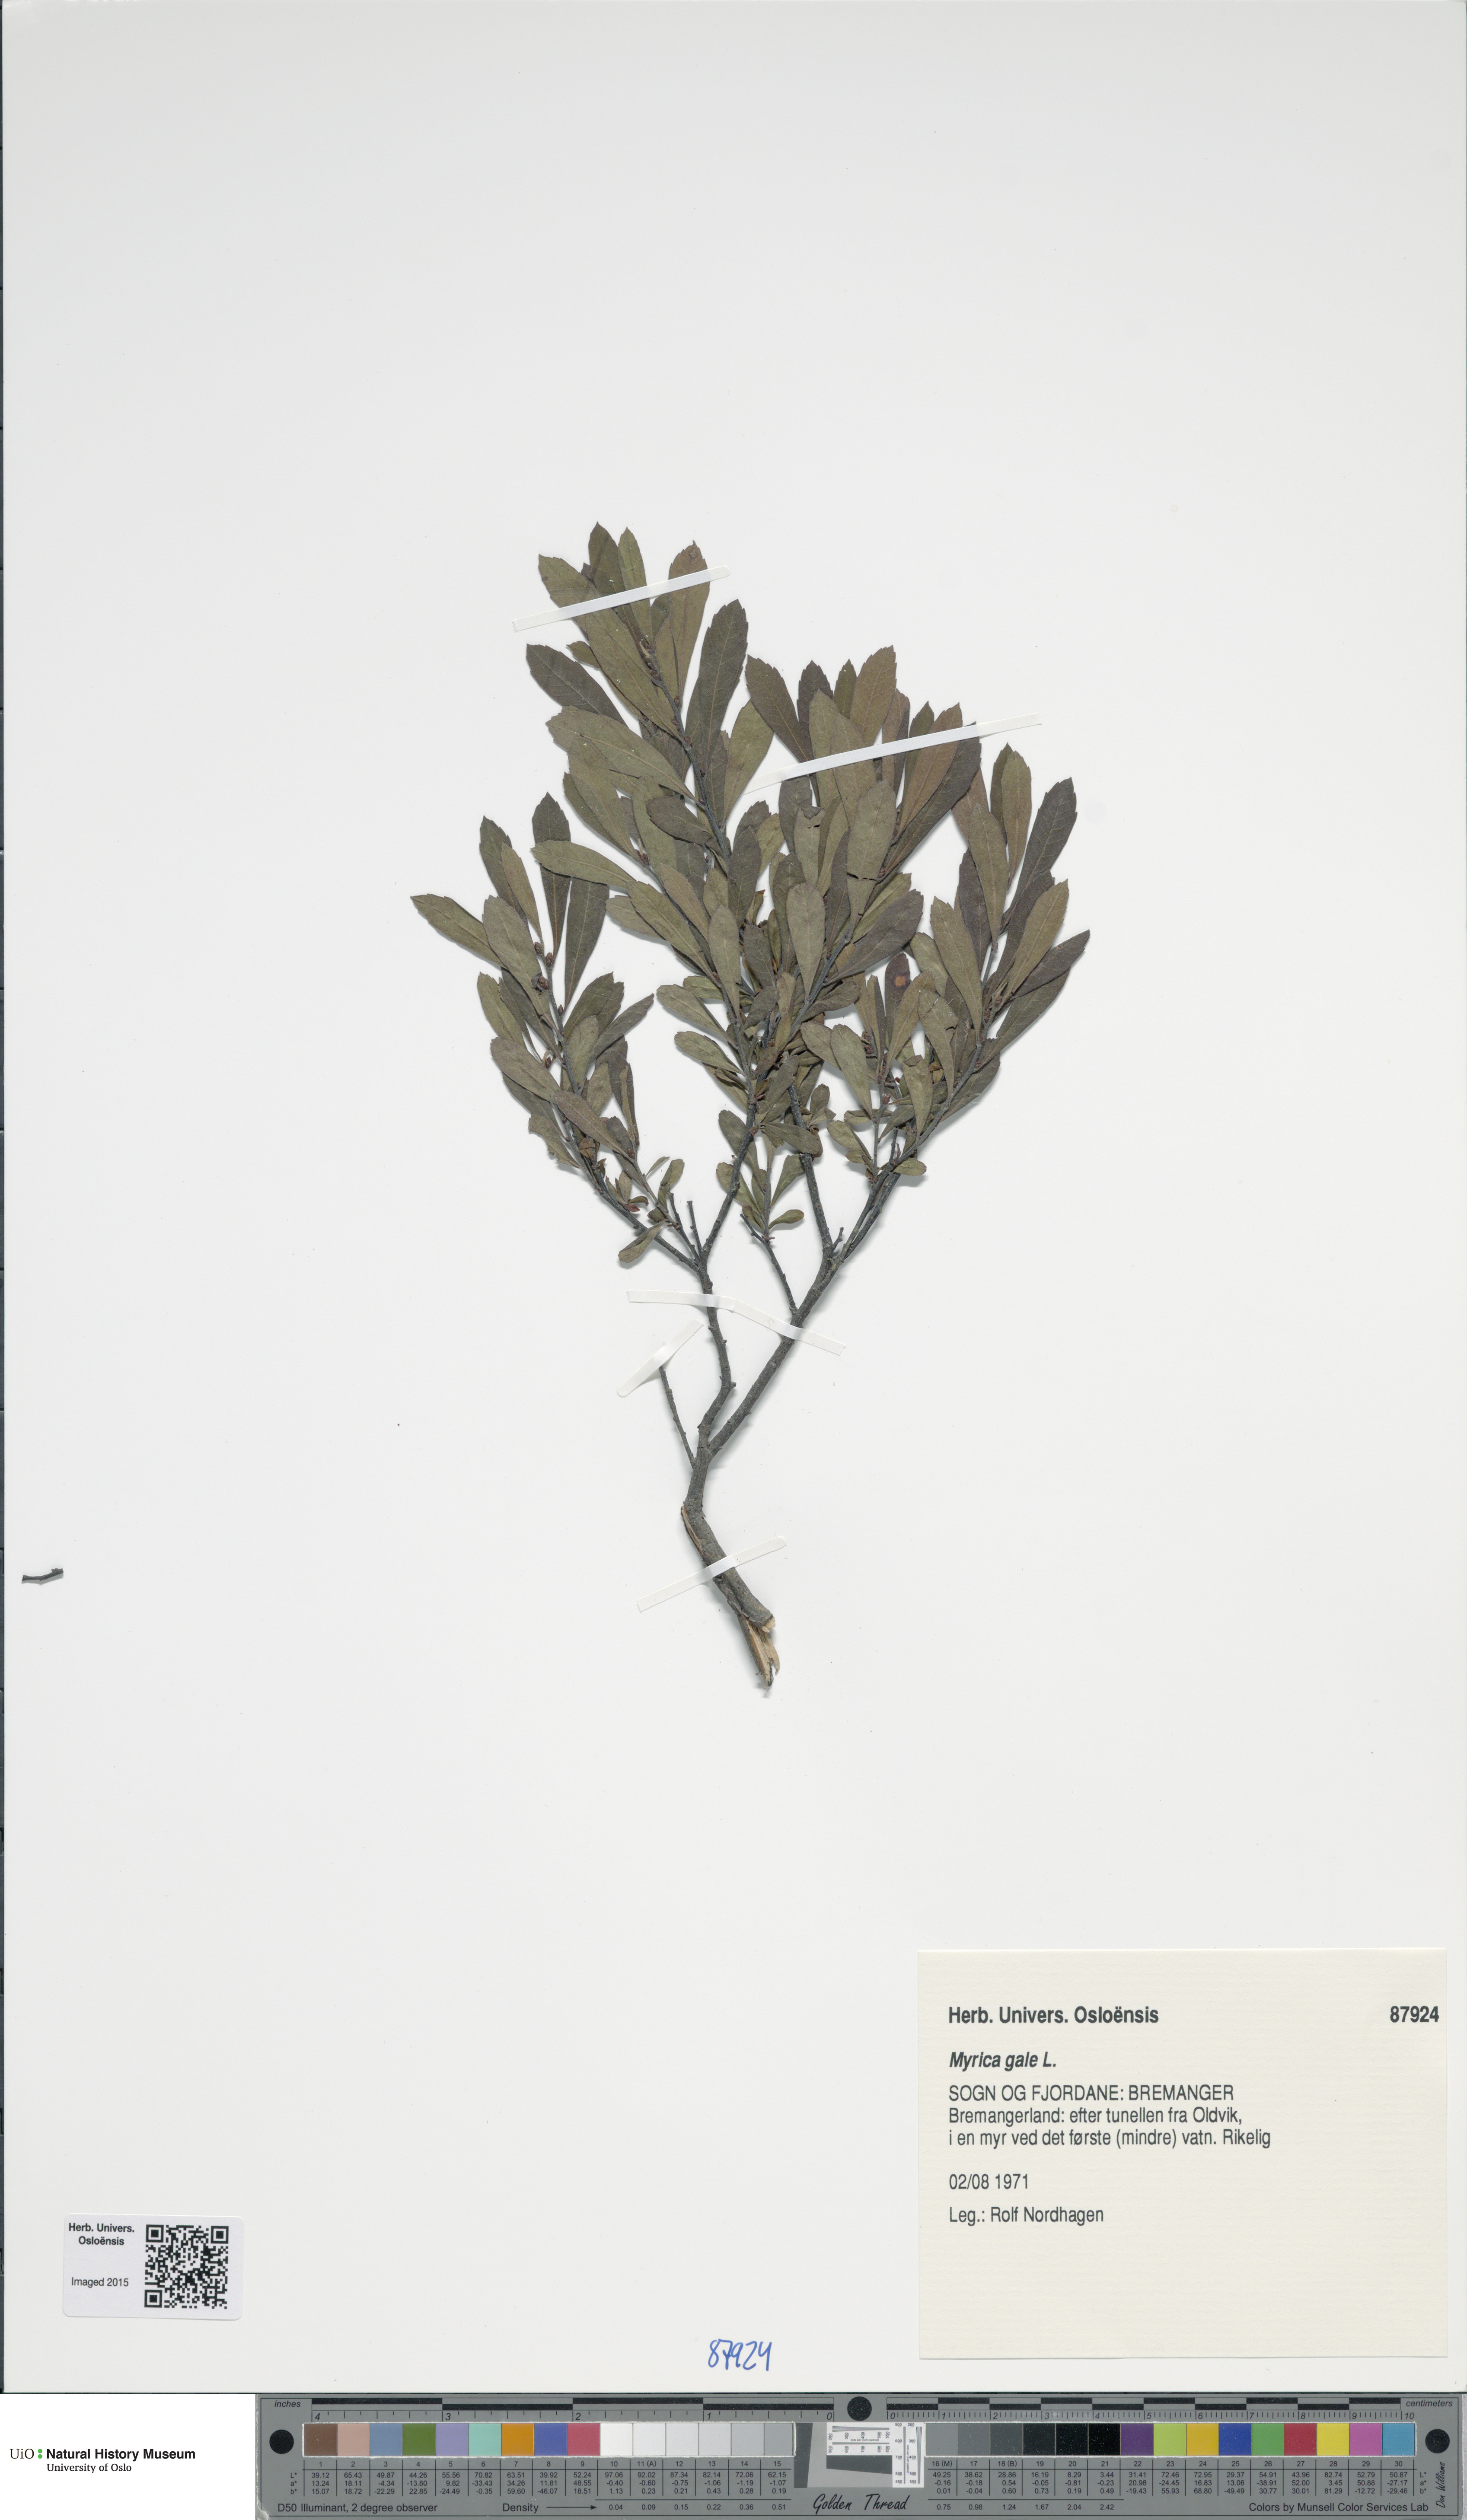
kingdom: Plantae
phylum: Tracheophyta
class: Magnoliopsida
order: Fagales
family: Myricaceae
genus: Myrica
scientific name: Myrica gale
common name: Sweet gale
